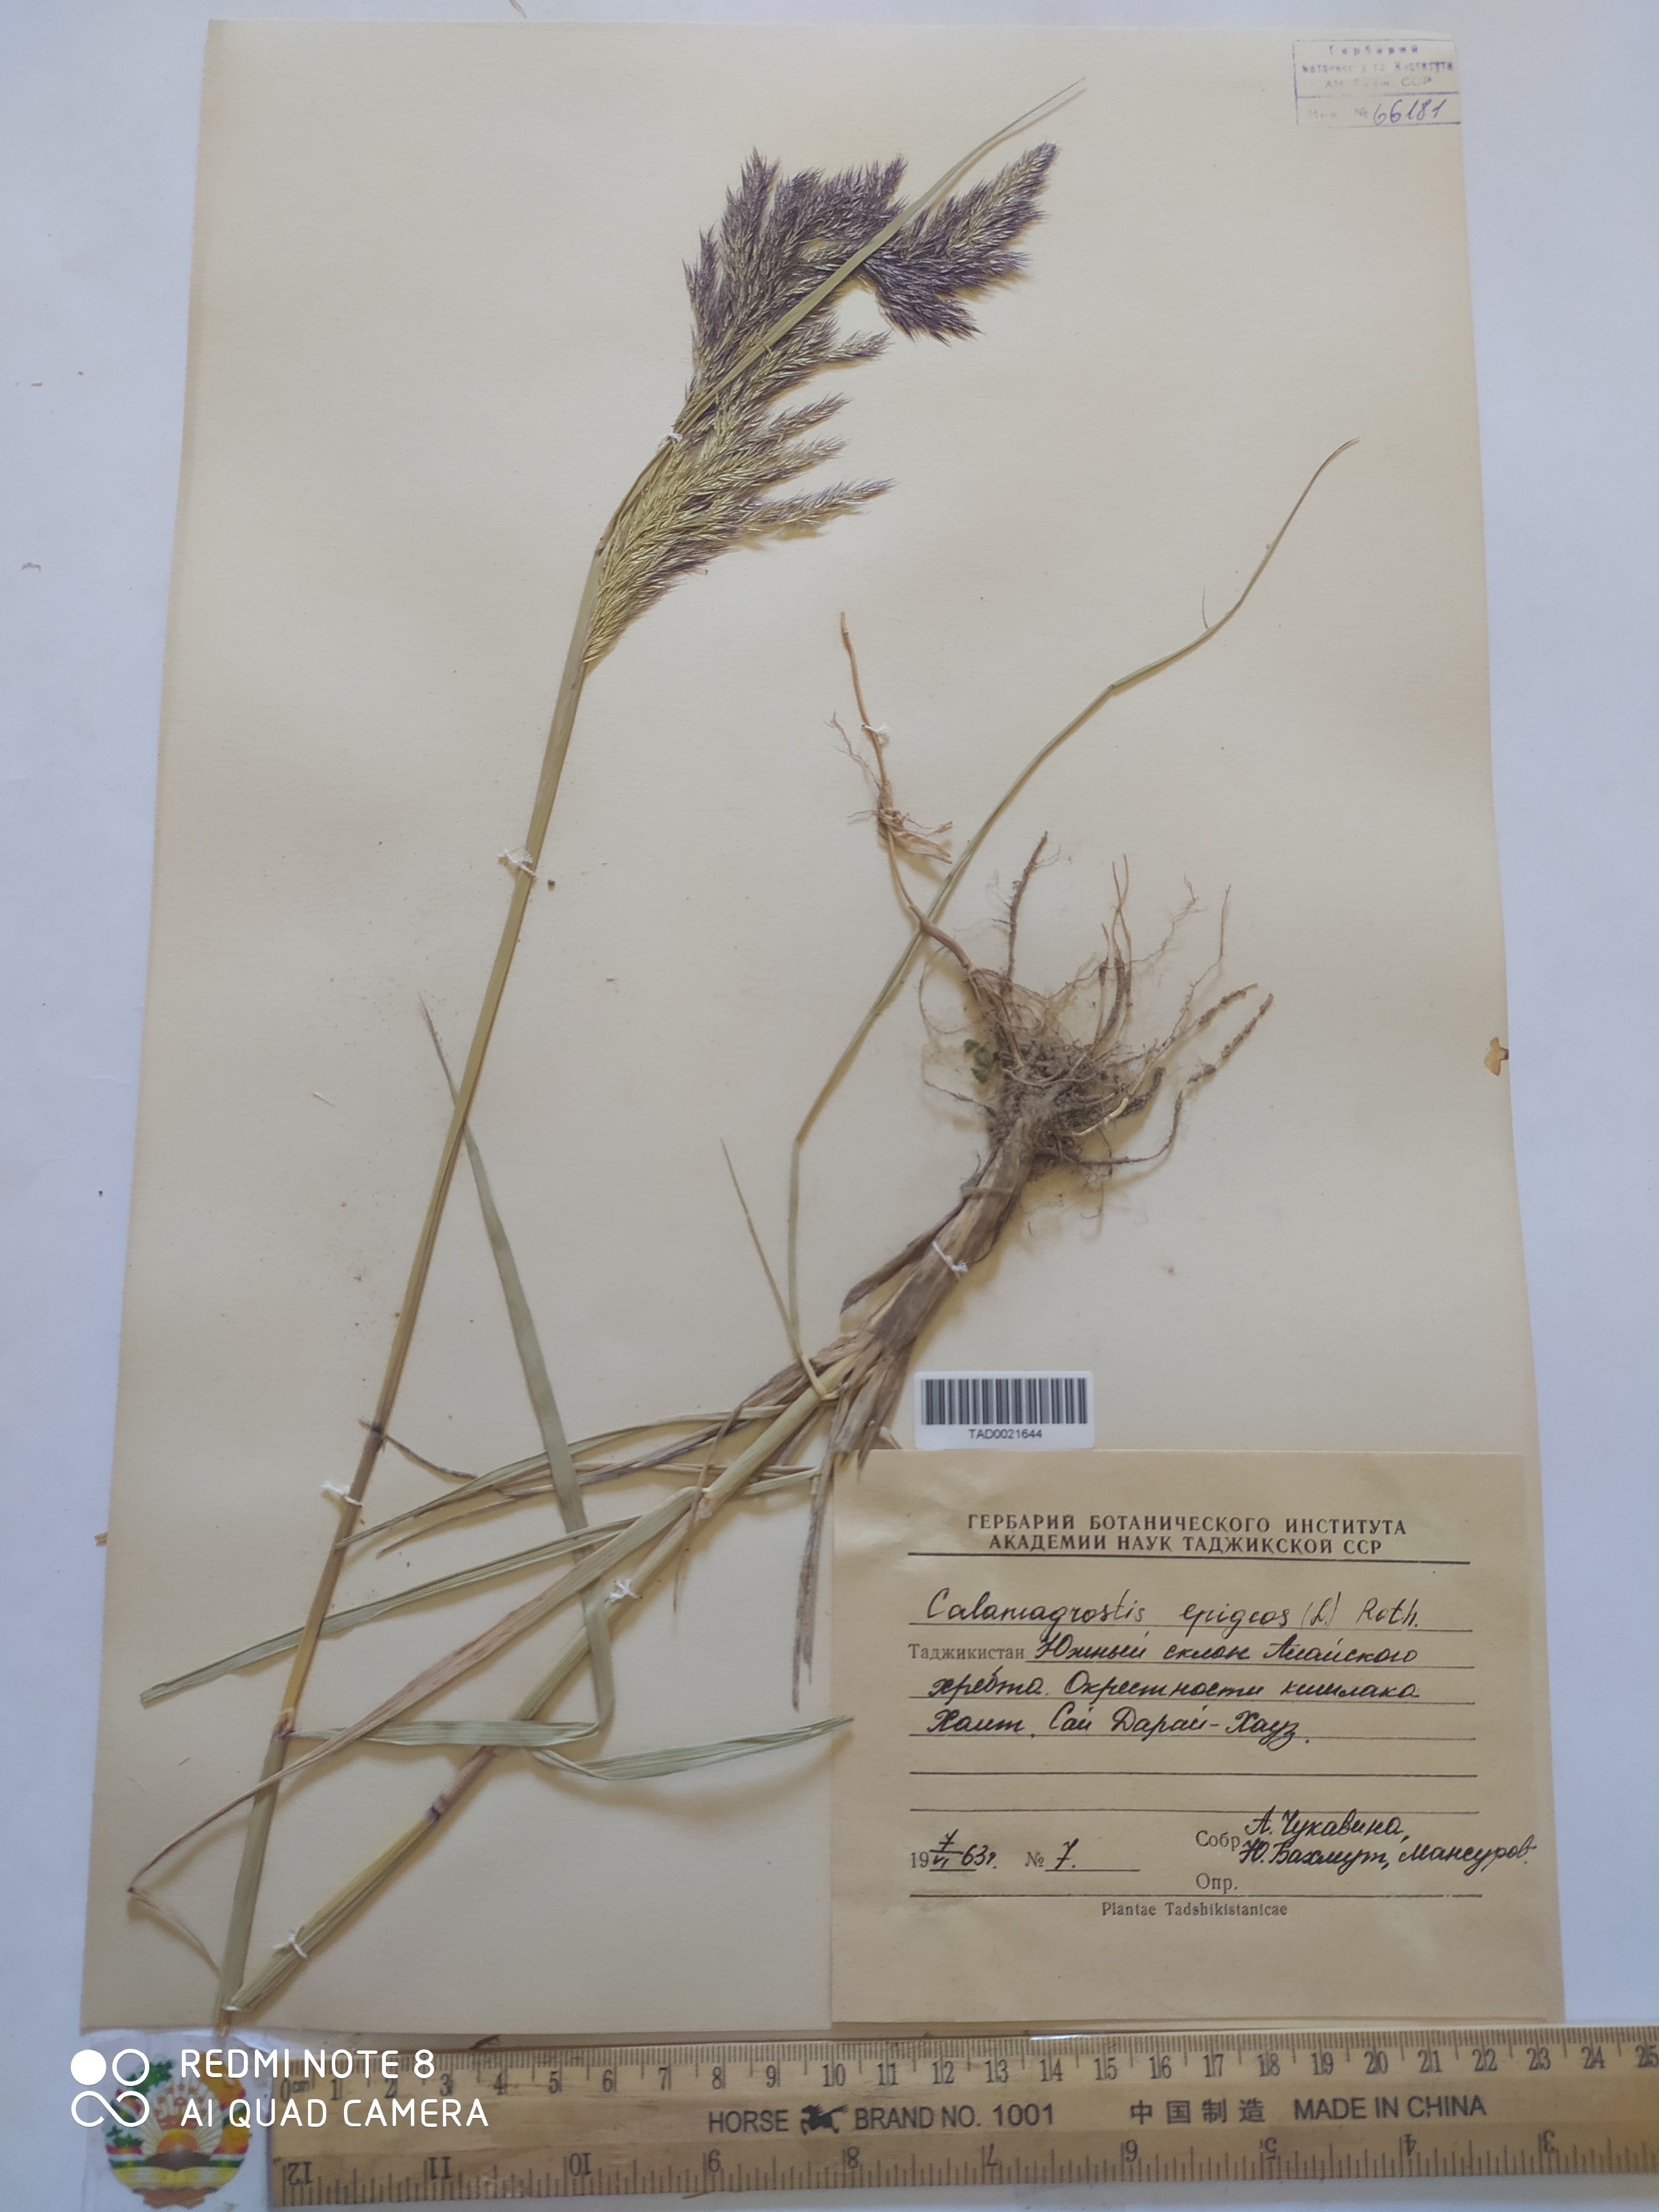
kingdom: Plantae
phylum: Tracheophyta
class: Liliopsida
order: Poales
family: Poaceae
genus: Calamagrostis
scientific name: Calamagrostis epigejos
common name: Wood small-reed
